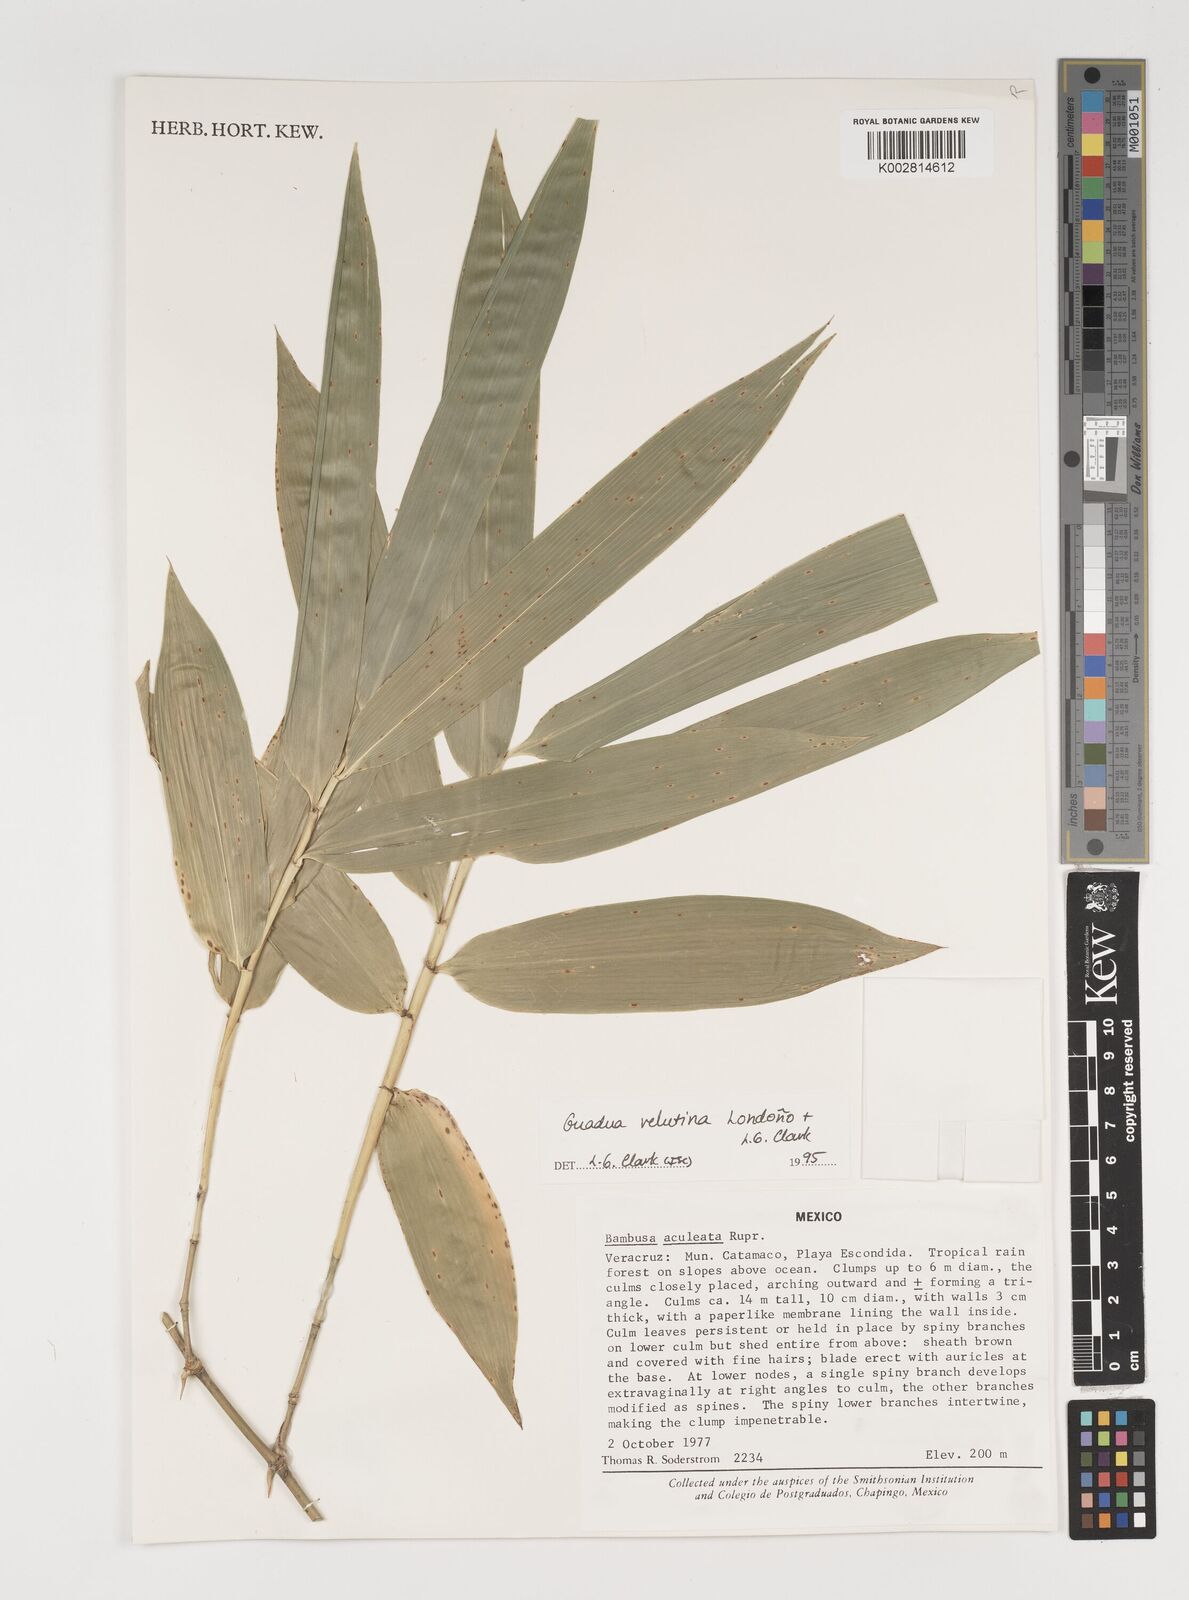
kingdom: Plantae
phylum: Tracheophyta
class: Liliopsida
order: Poales
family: Poaceae
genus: Guadua
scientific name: Guadua velutina
